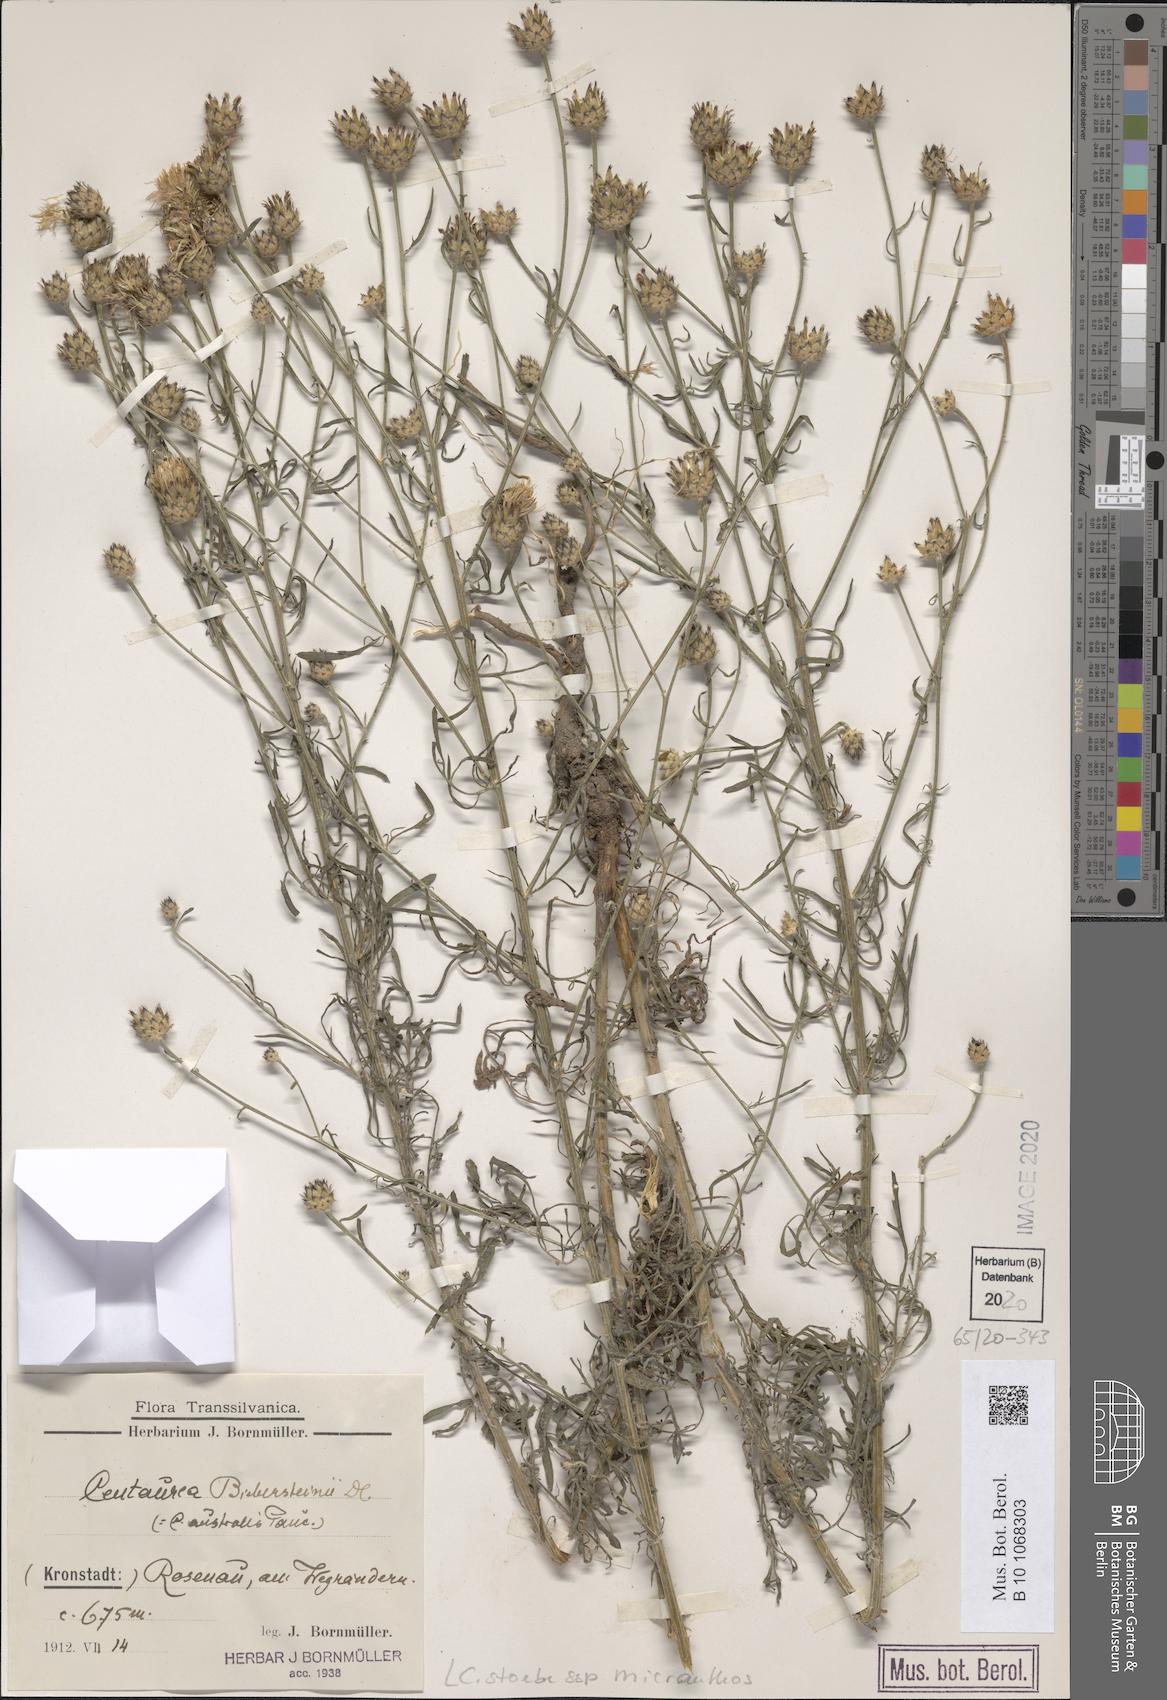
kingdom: Plantae
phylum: Tracheophyta
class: Magnoliopsida
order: Asterales
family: Asteraceae
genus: Centaurea
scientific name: Centaurea australis
